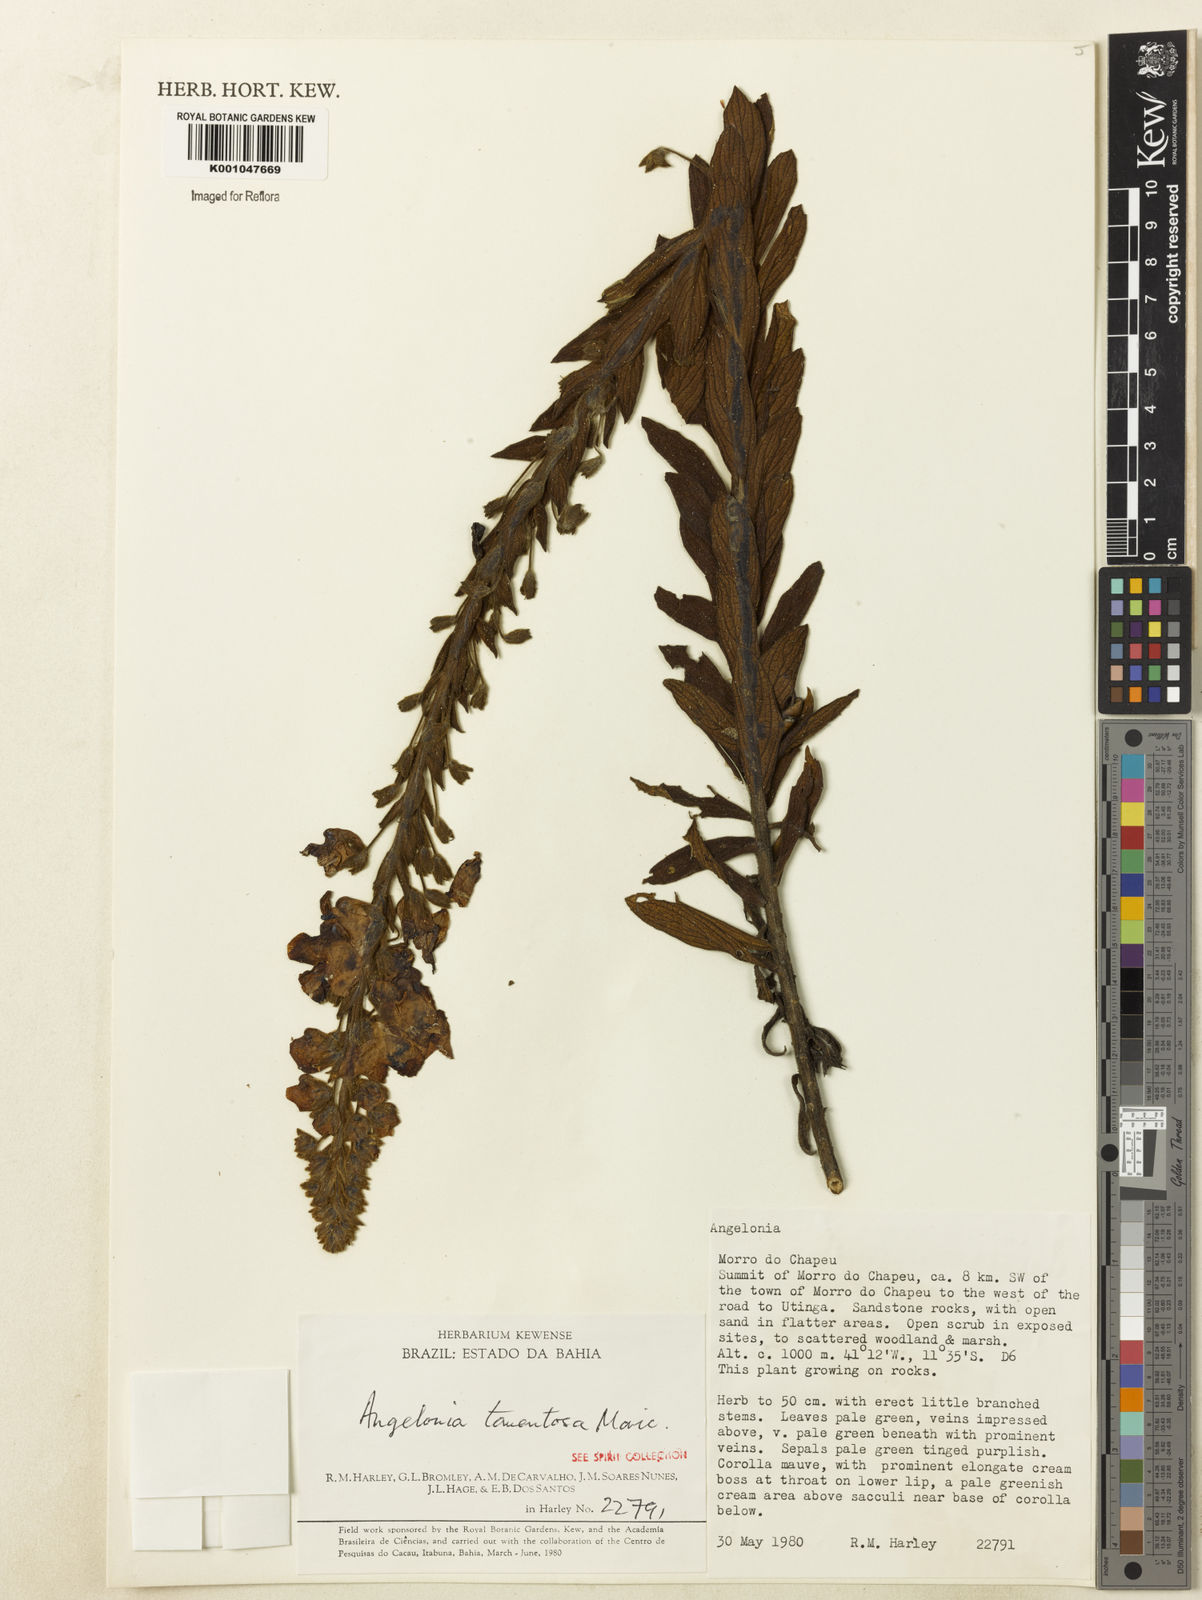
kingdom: Plantae
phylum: Tracheophyta
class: Magnoliopsida
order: Lamiales
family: Plantaginaceae
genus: Angelonia
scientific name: Angelonia tomentosa
